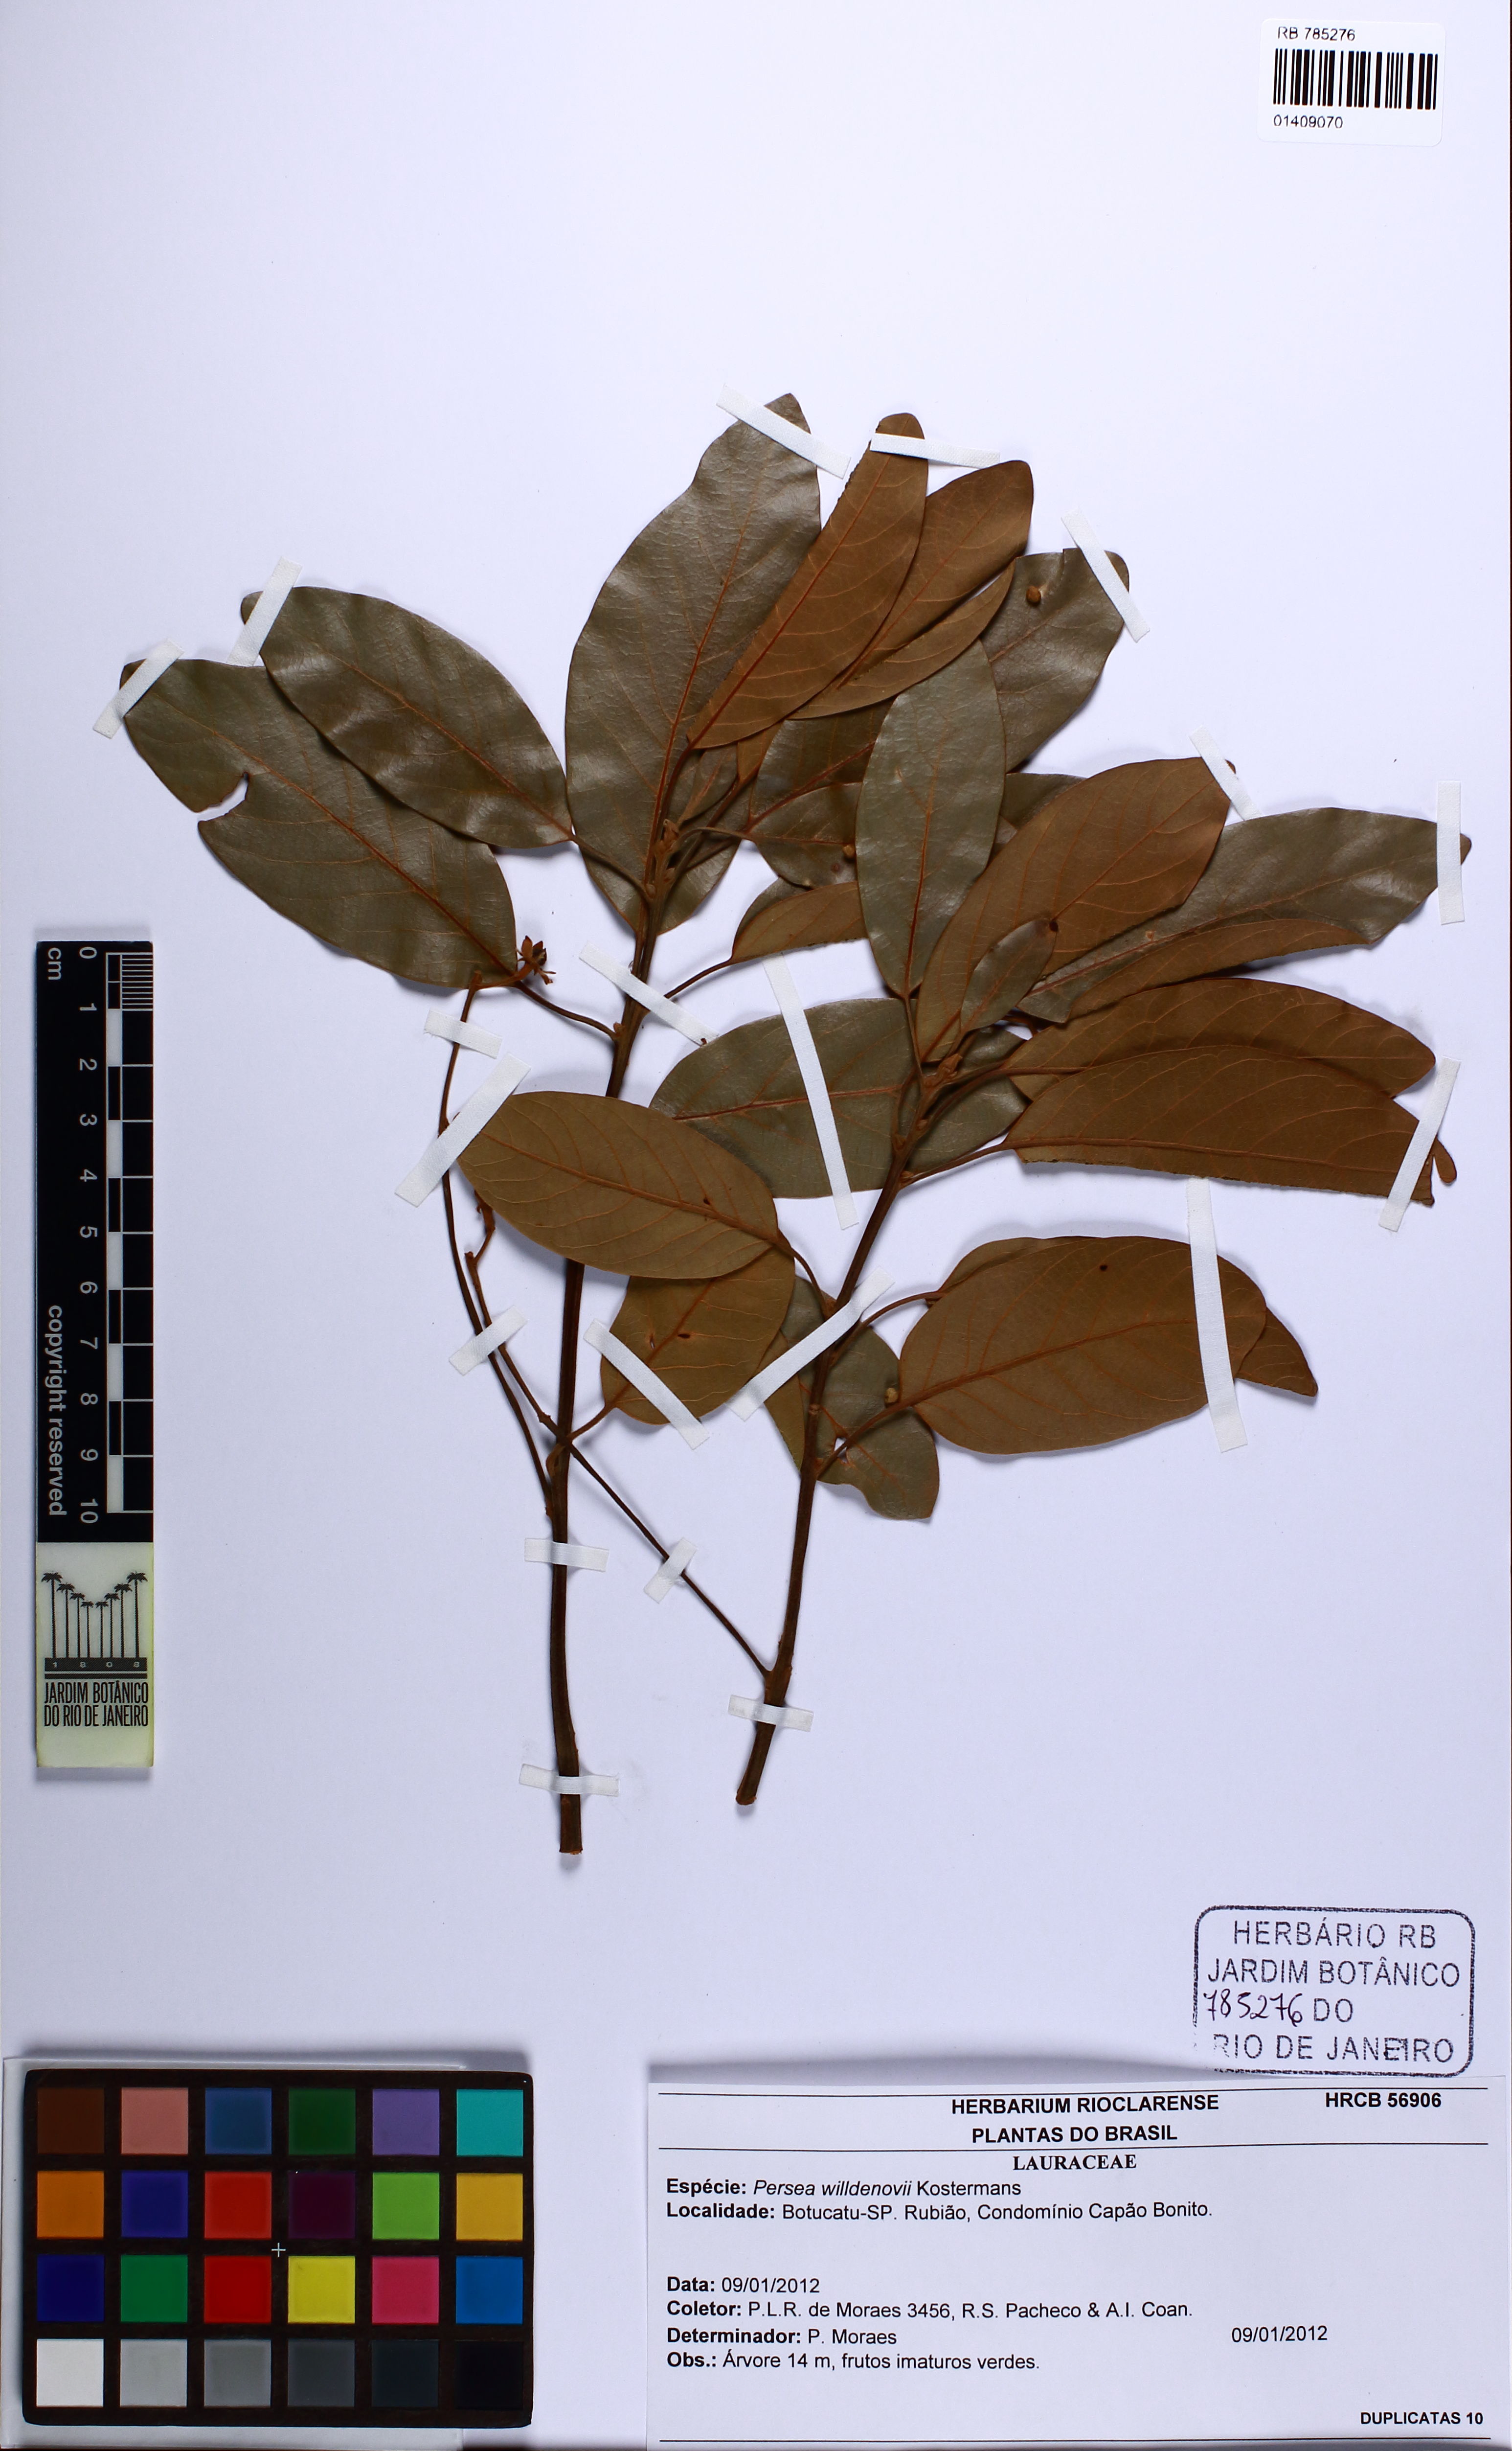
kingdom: Plantae
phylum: Tracheophyta
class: Magnoliopsida
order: Laurales
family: Lauraceae
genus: Persea
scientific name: Persea willdenovii
